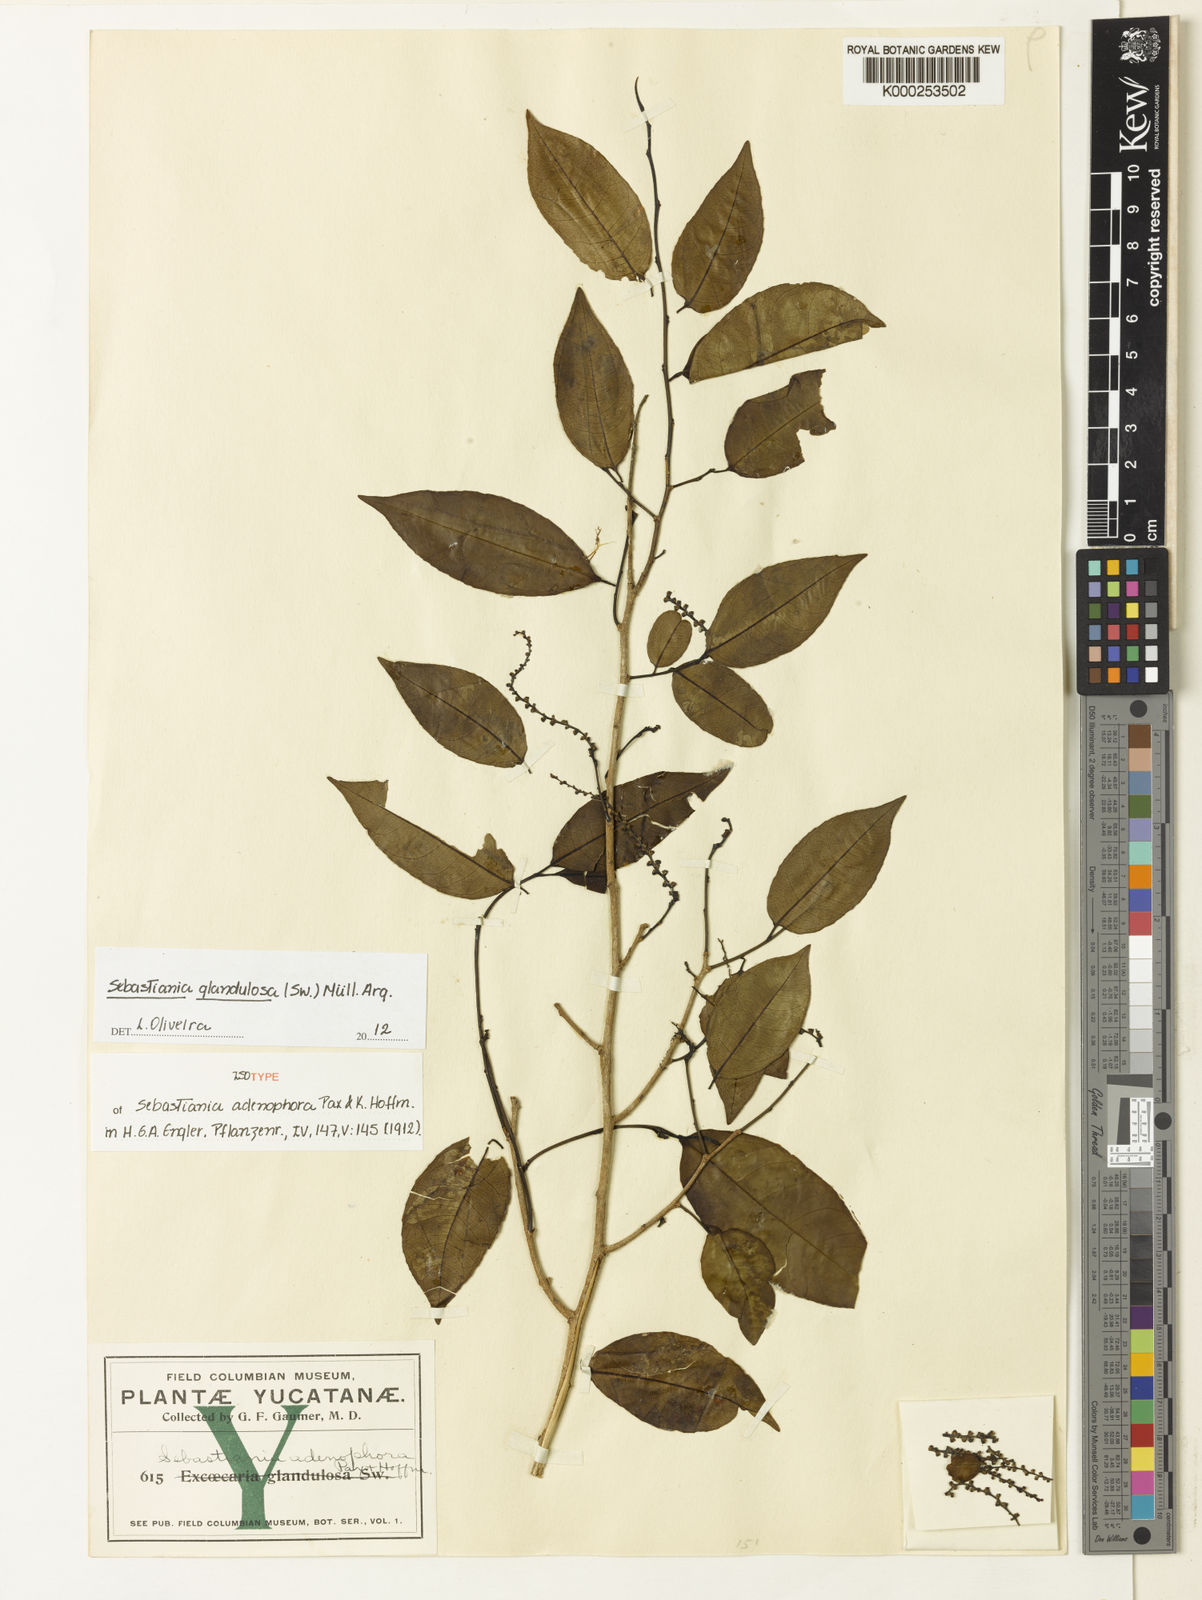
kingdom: Plantae
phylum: Tracheophyta
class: Magnoliopsida
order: Malpighiales
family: Euphorbiaceae
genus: Sebastiania
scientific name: Sebastiania glandulosa
